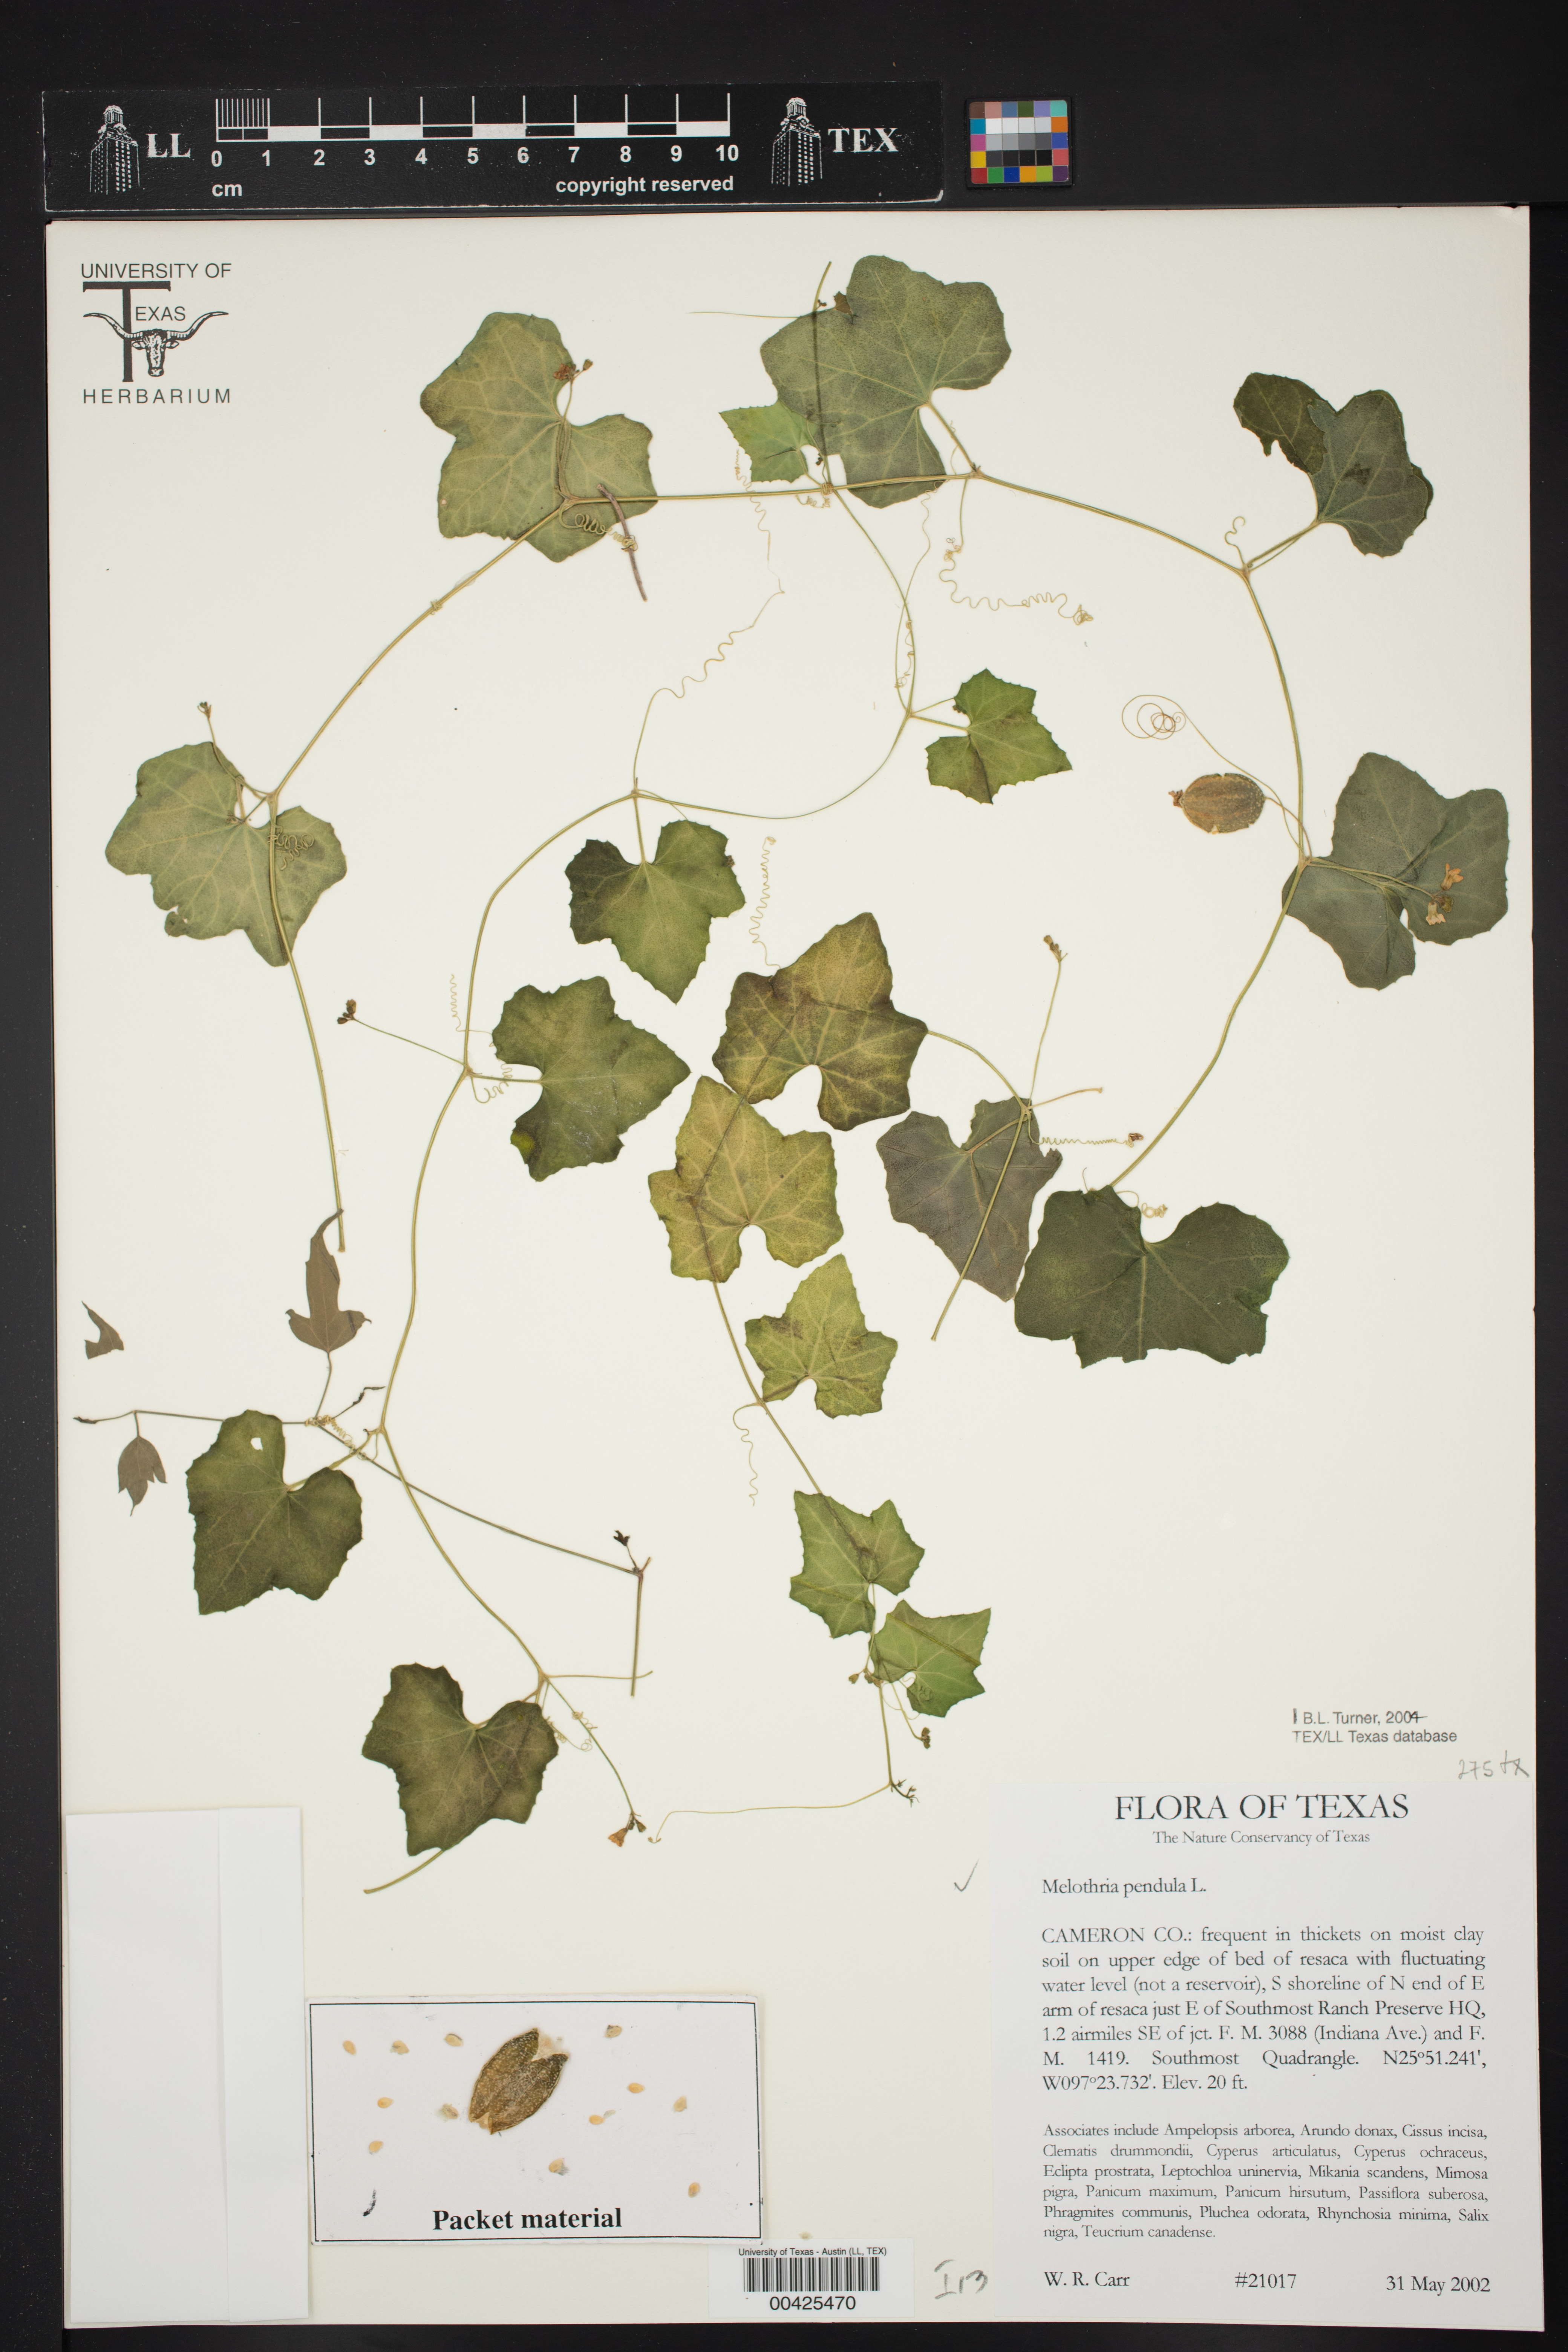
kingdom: Plantae
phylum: Tracheophyta
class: Magnoliopsida
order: Cucurbitales
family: Cucurbitaceae
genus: Melothria
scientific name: Melothria pendula
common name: Creeping-cucumber
